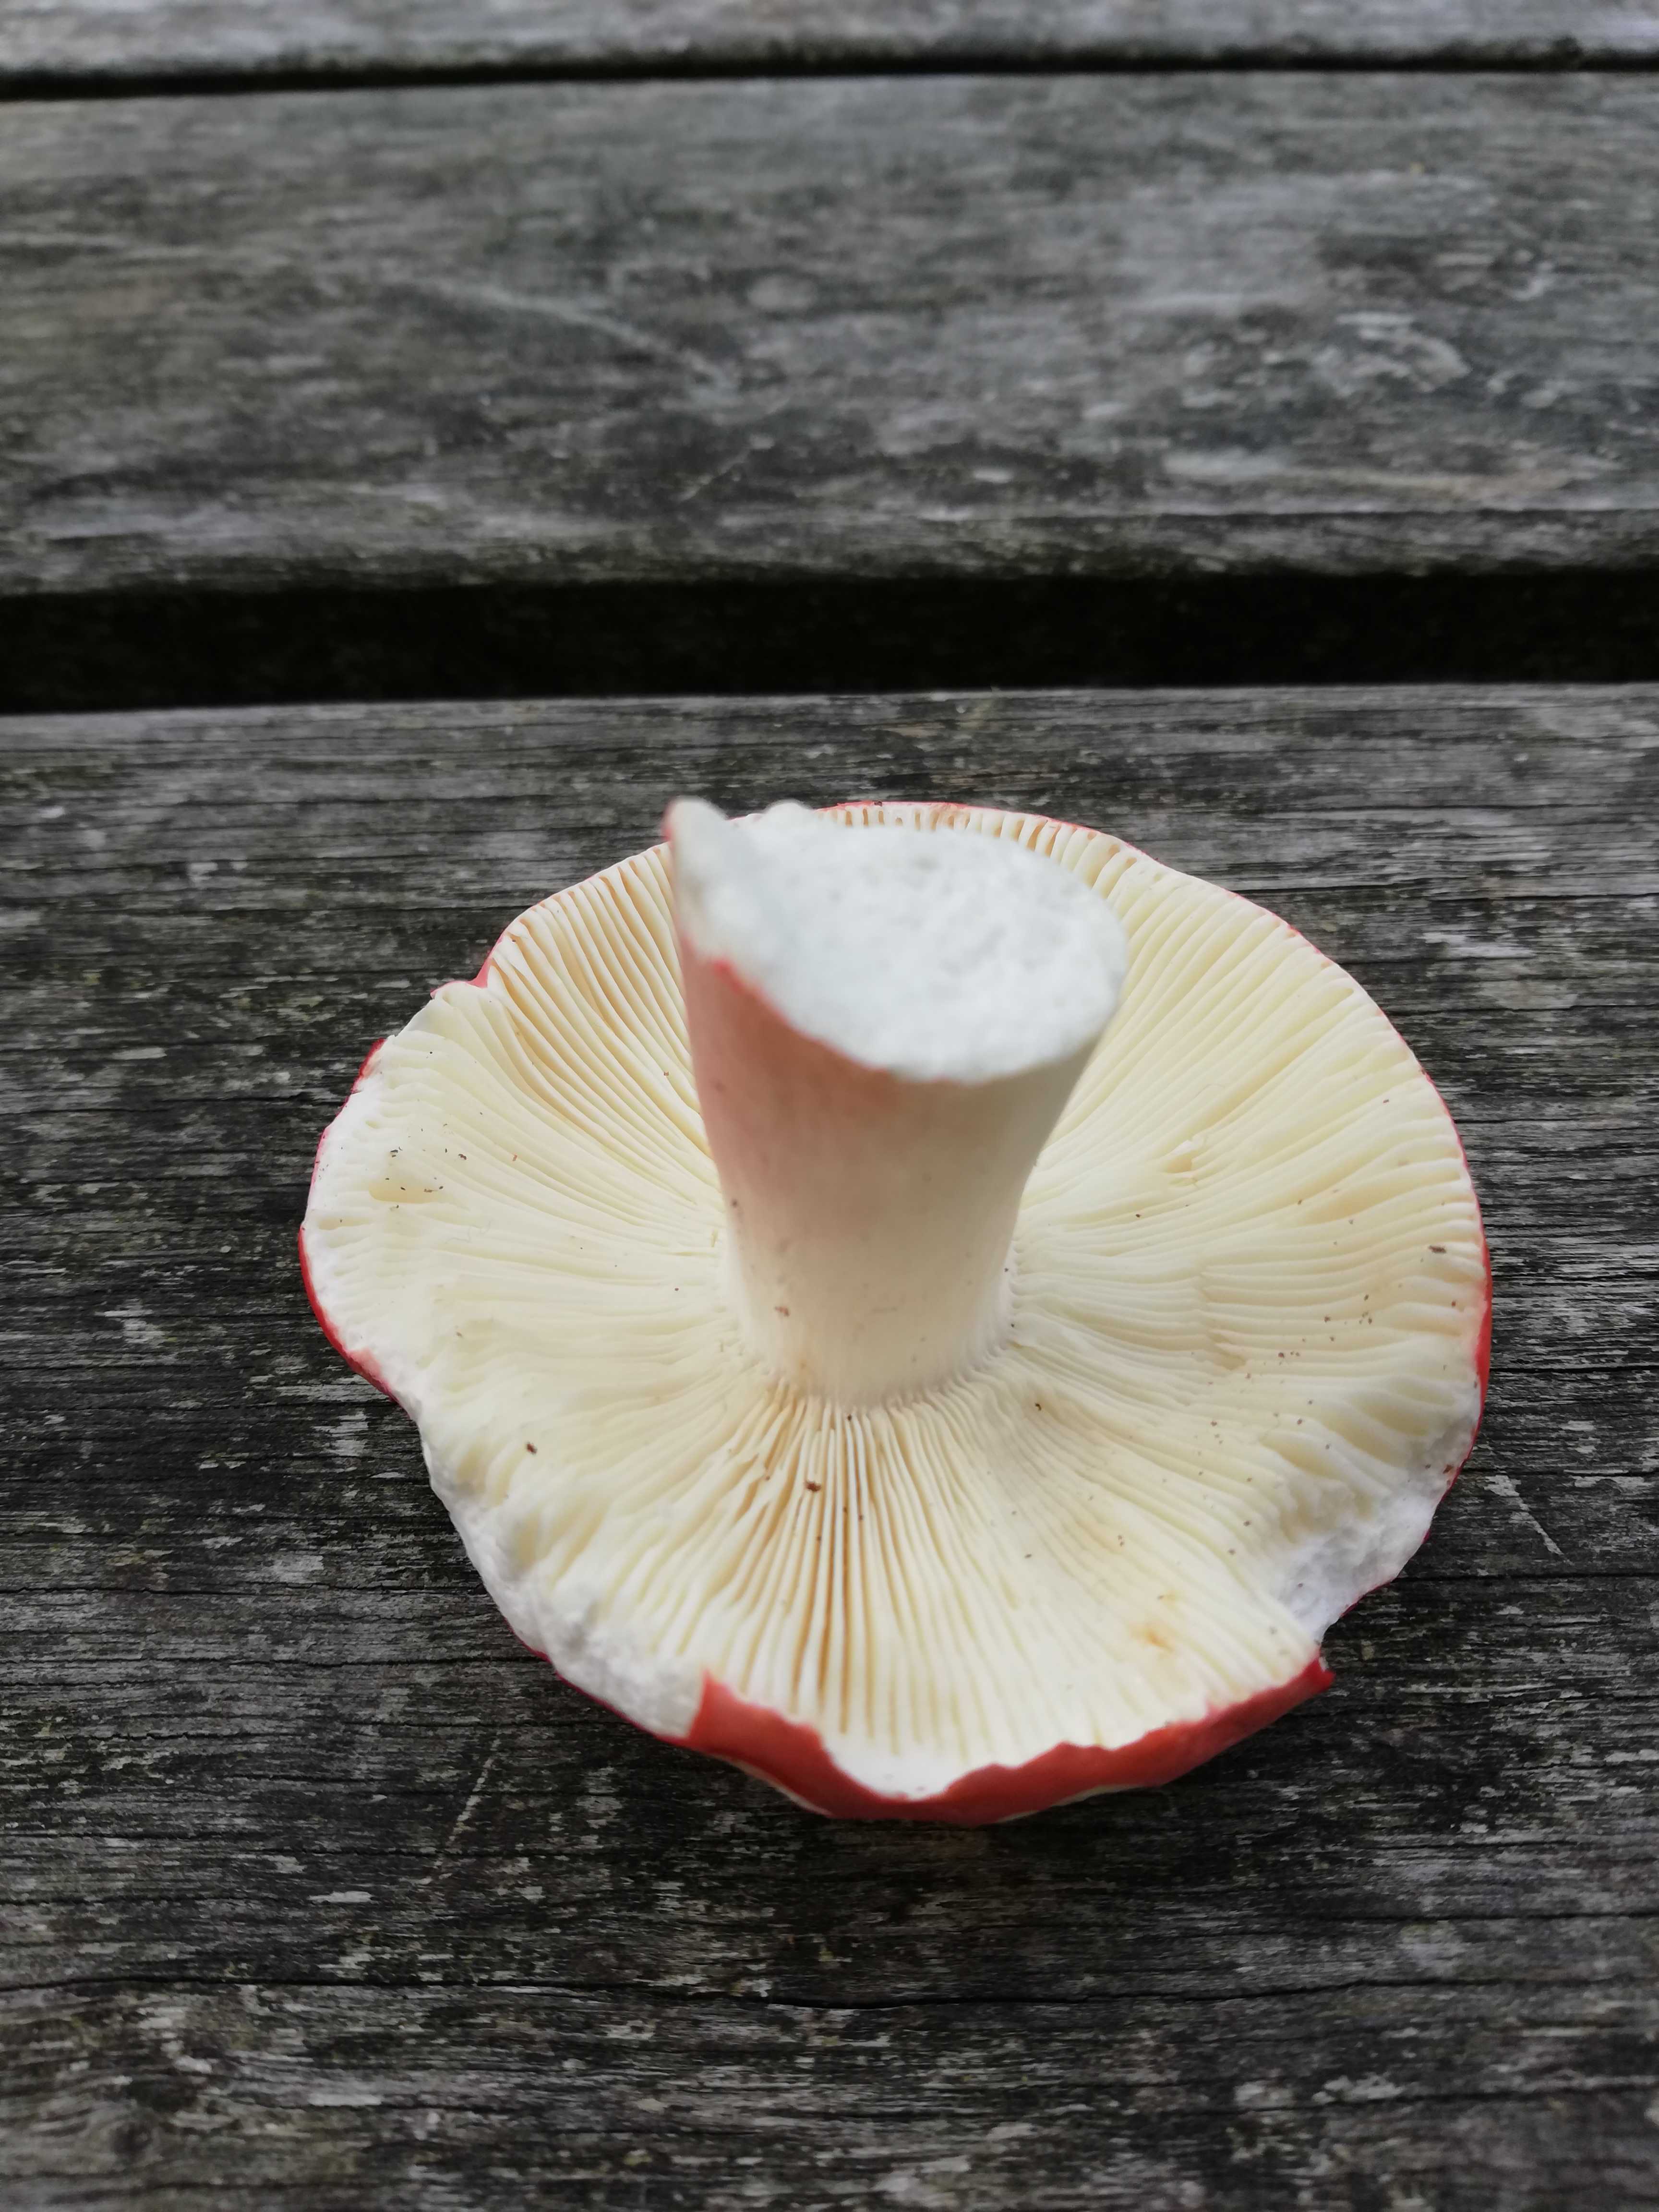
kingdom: Fungi
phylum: Basidiomycota
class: Agaricomycetes
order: Russulales
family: Russulaceae
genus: Russula
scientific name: Russula rosea
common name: fastkødet skørhat
